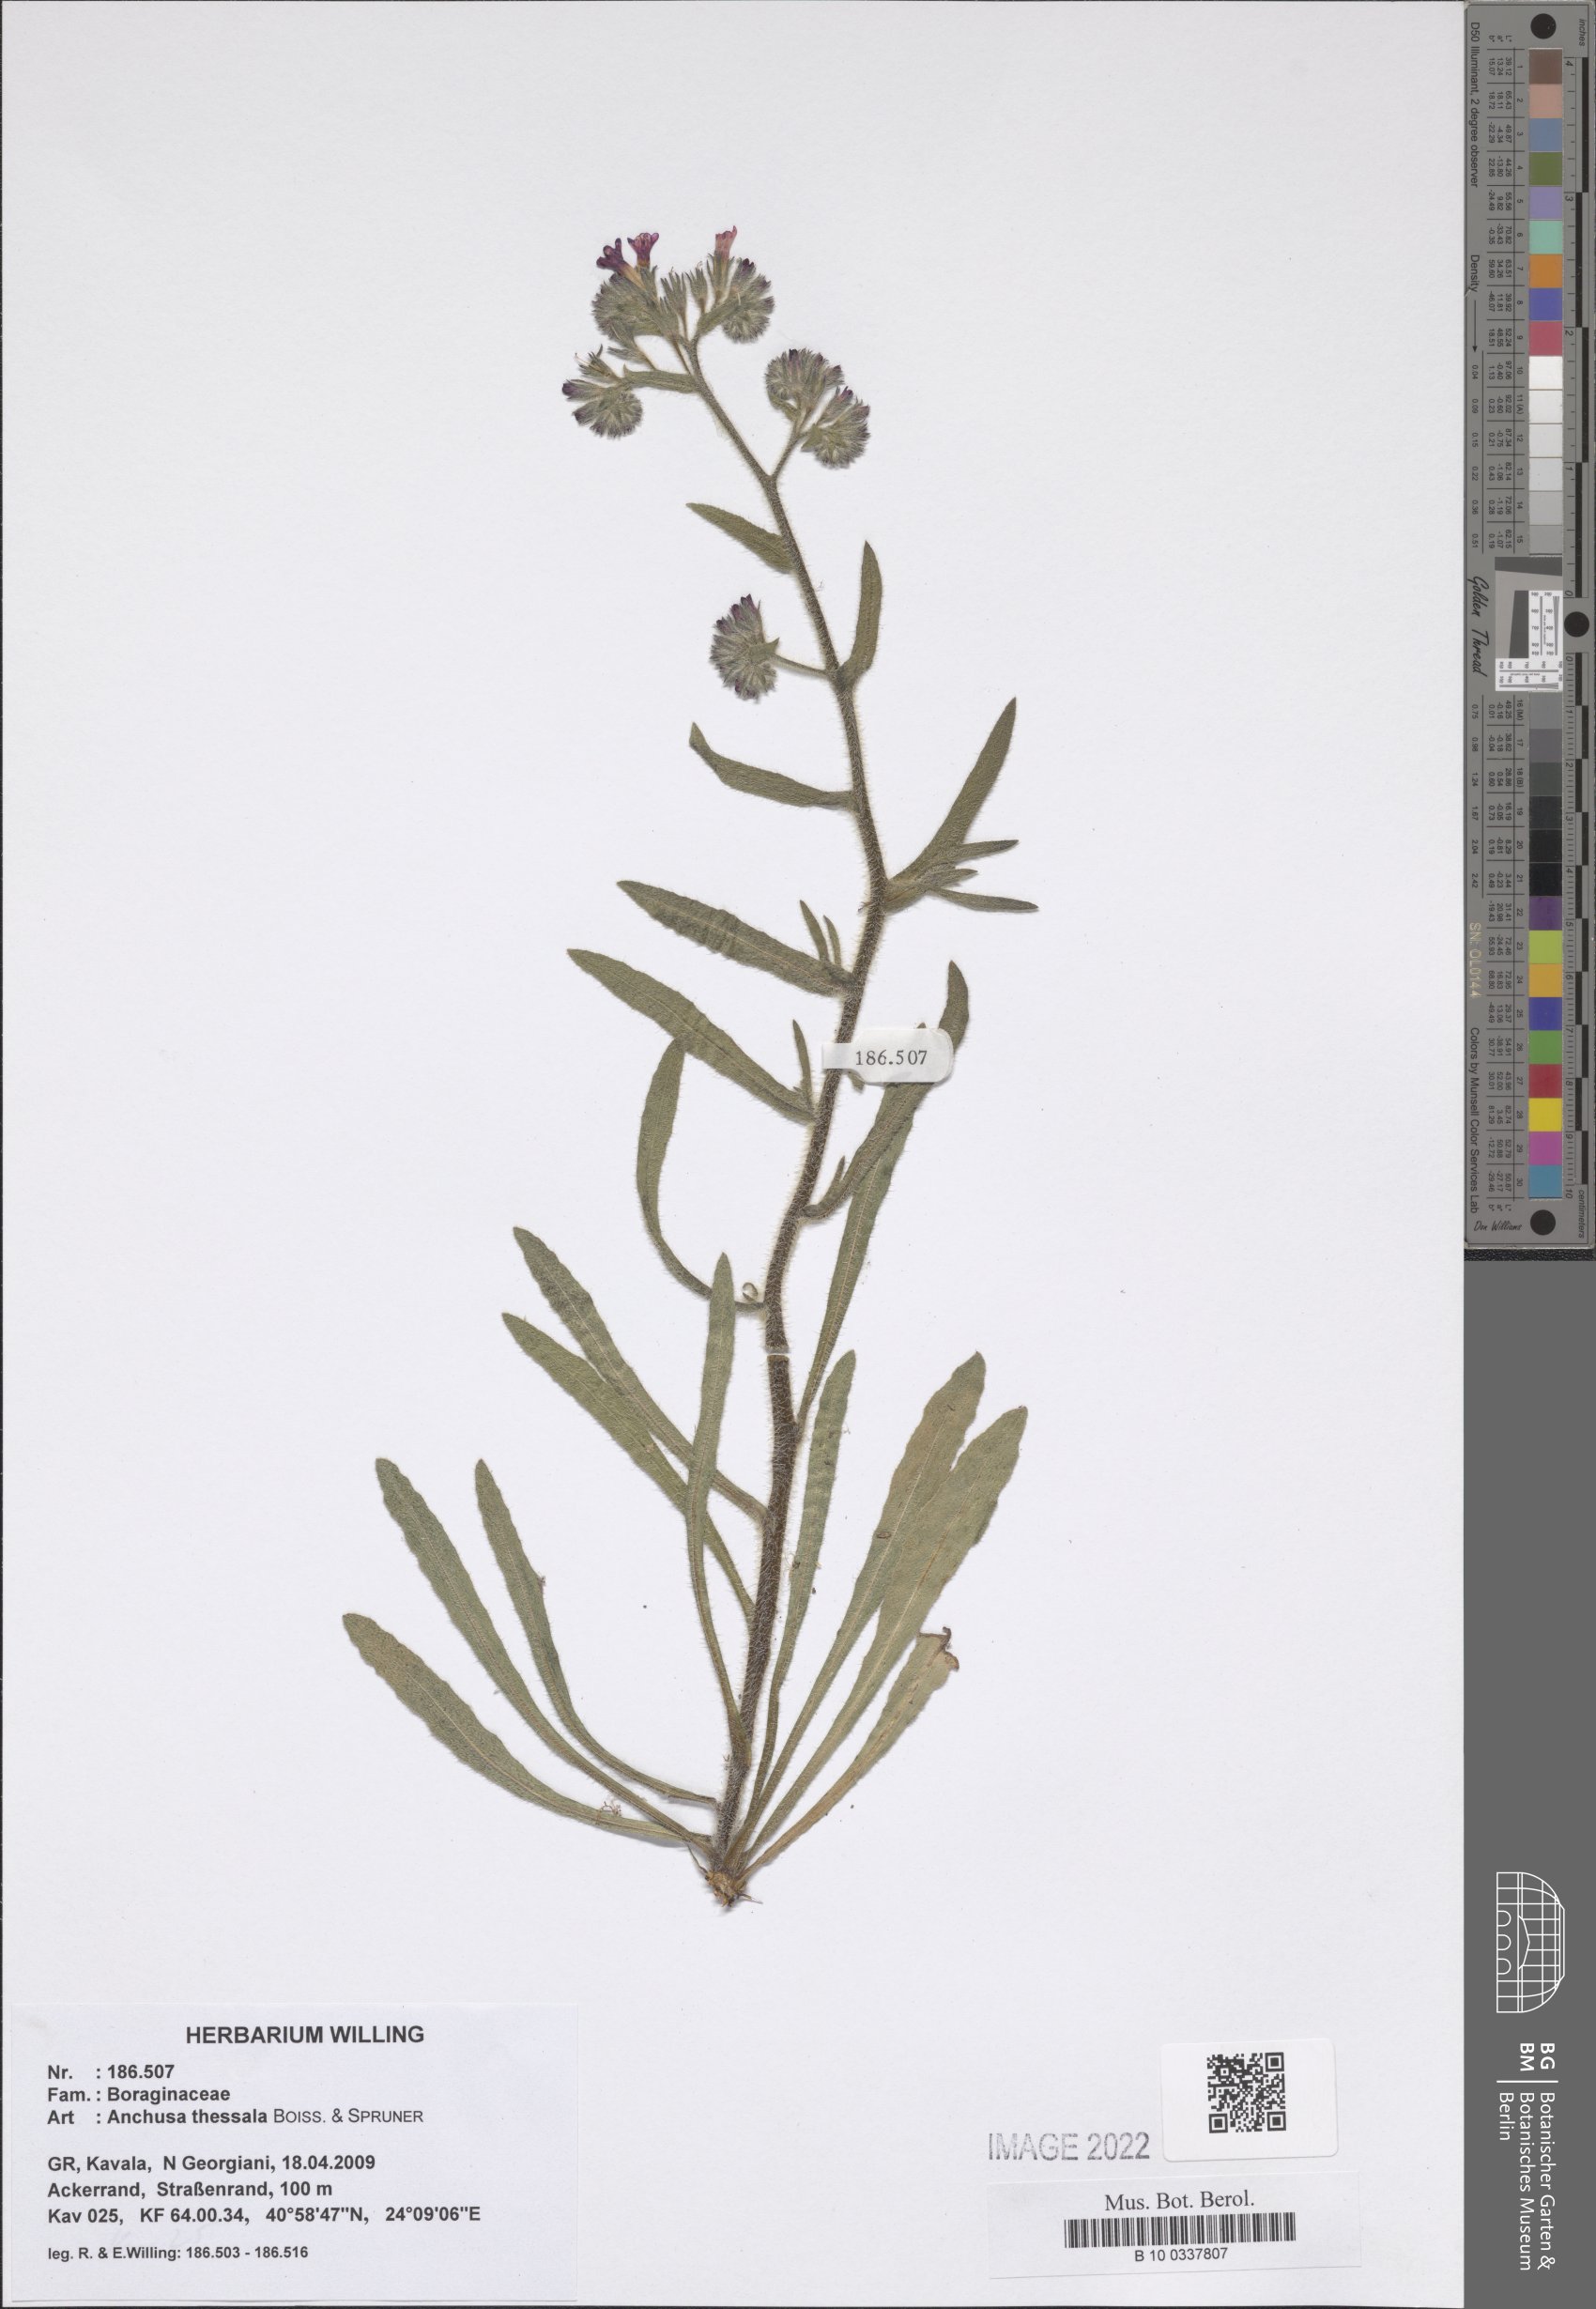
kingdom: Plantae
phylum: Tracheophyta
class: Magnoliopsida
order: Boraginales
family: Boraginaceae
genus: Anchusa
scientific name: Anchusa thessala
